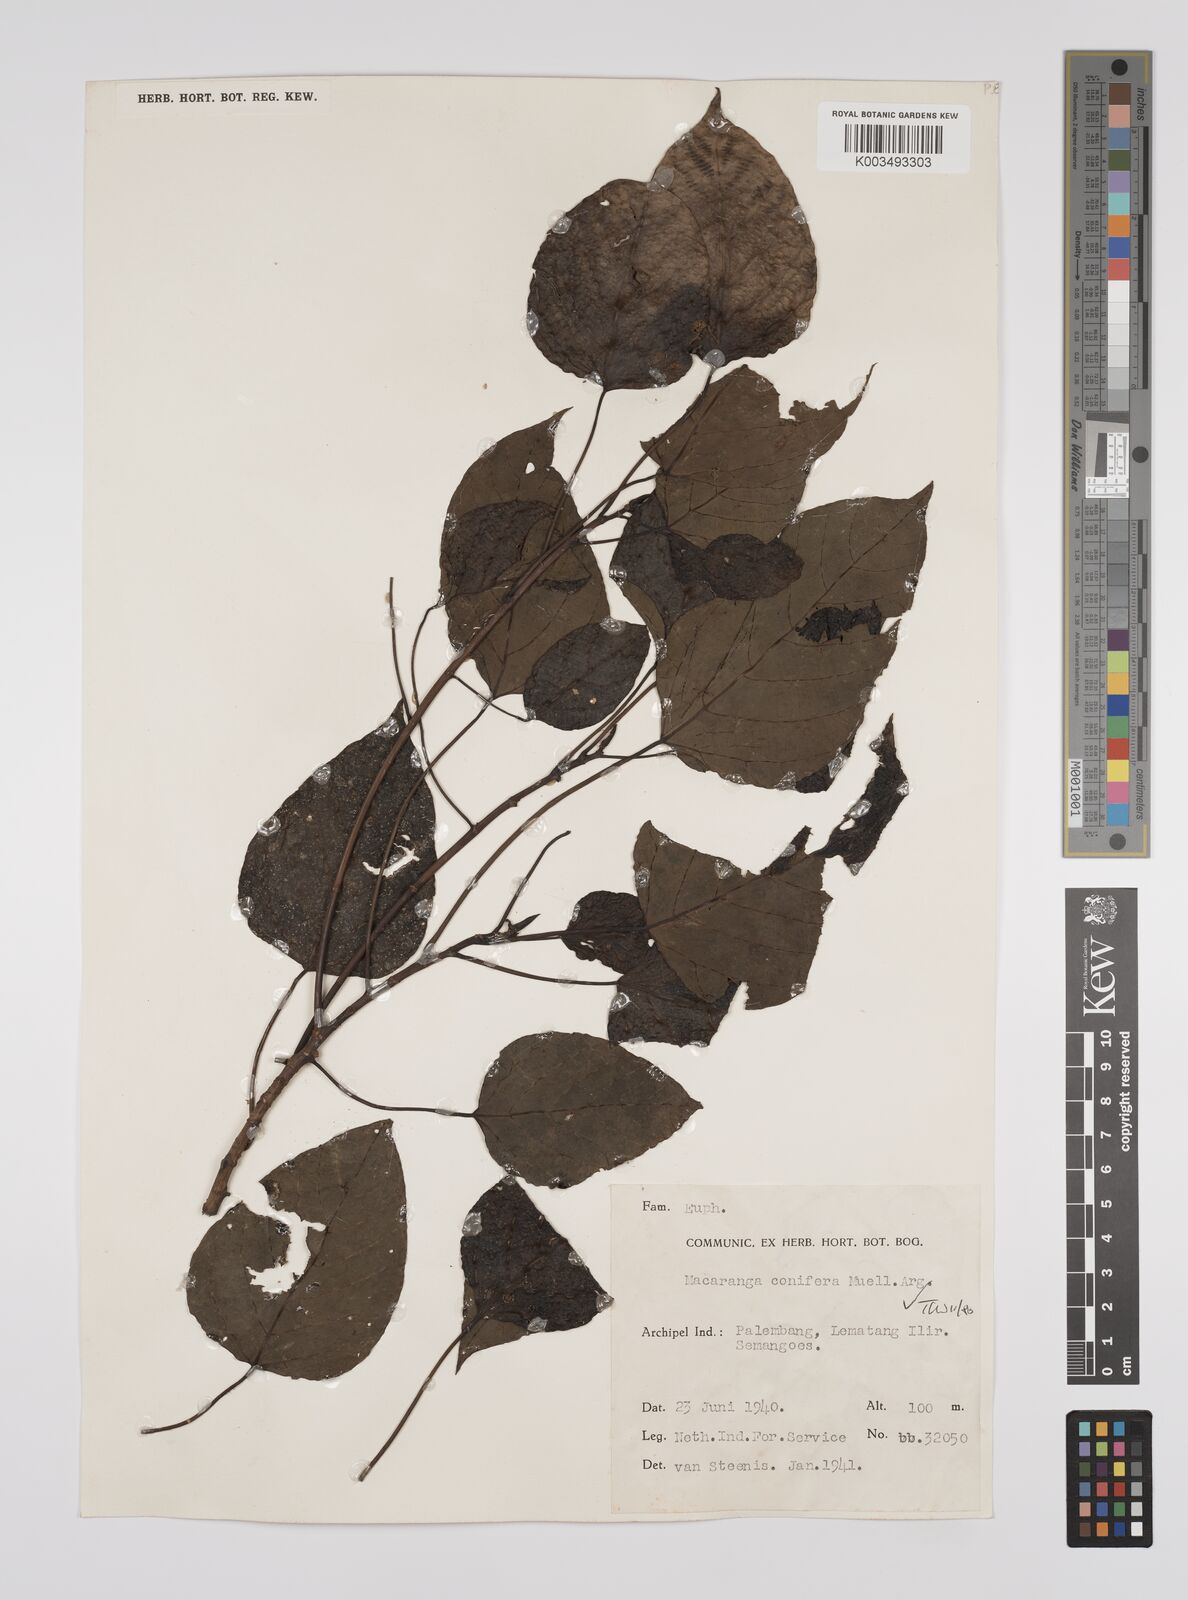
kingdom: Plantae
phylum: Tracheophyta
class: Magnoliopsida
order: Malpighiales
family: Euphorbiaceae
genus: Macaranga
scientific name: Macaranga conifera
